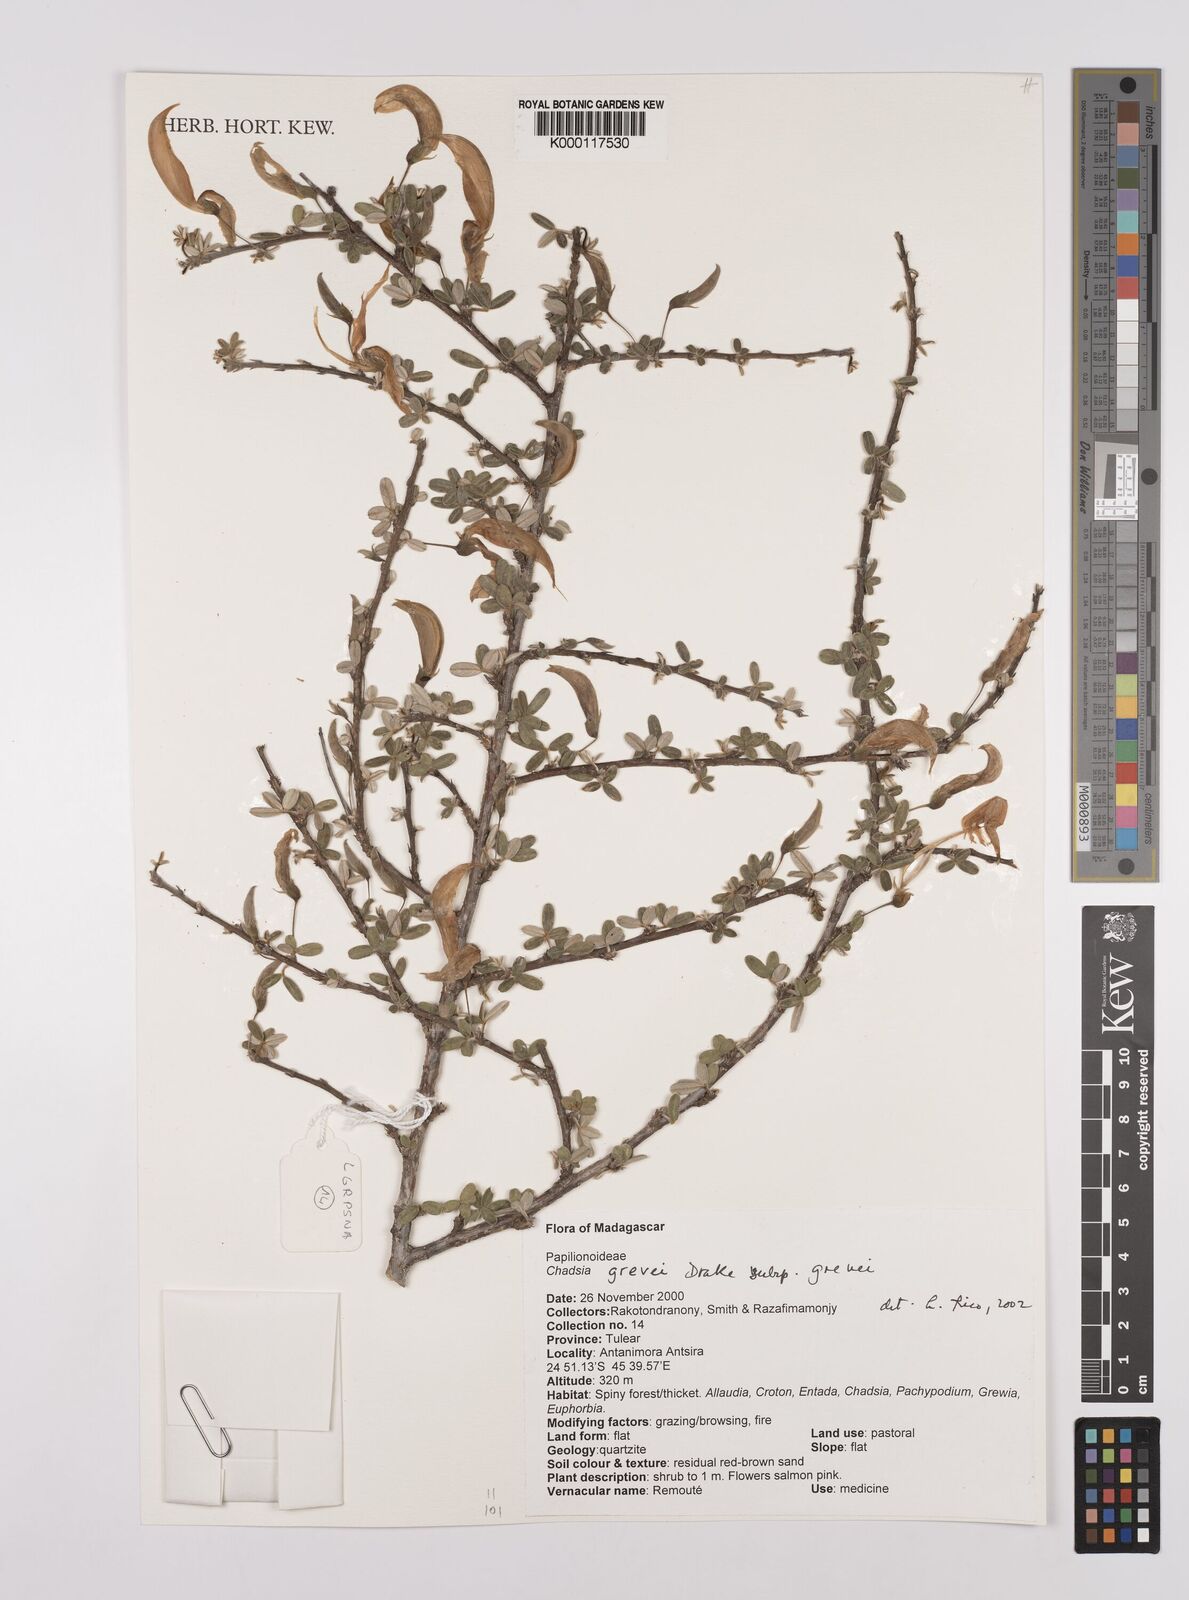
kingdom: Plantae
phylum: Tracheophyta
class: Magnoliopsida
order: Fabales
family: Fabaceae
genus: Chadsia
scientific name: Chadsia grevei
